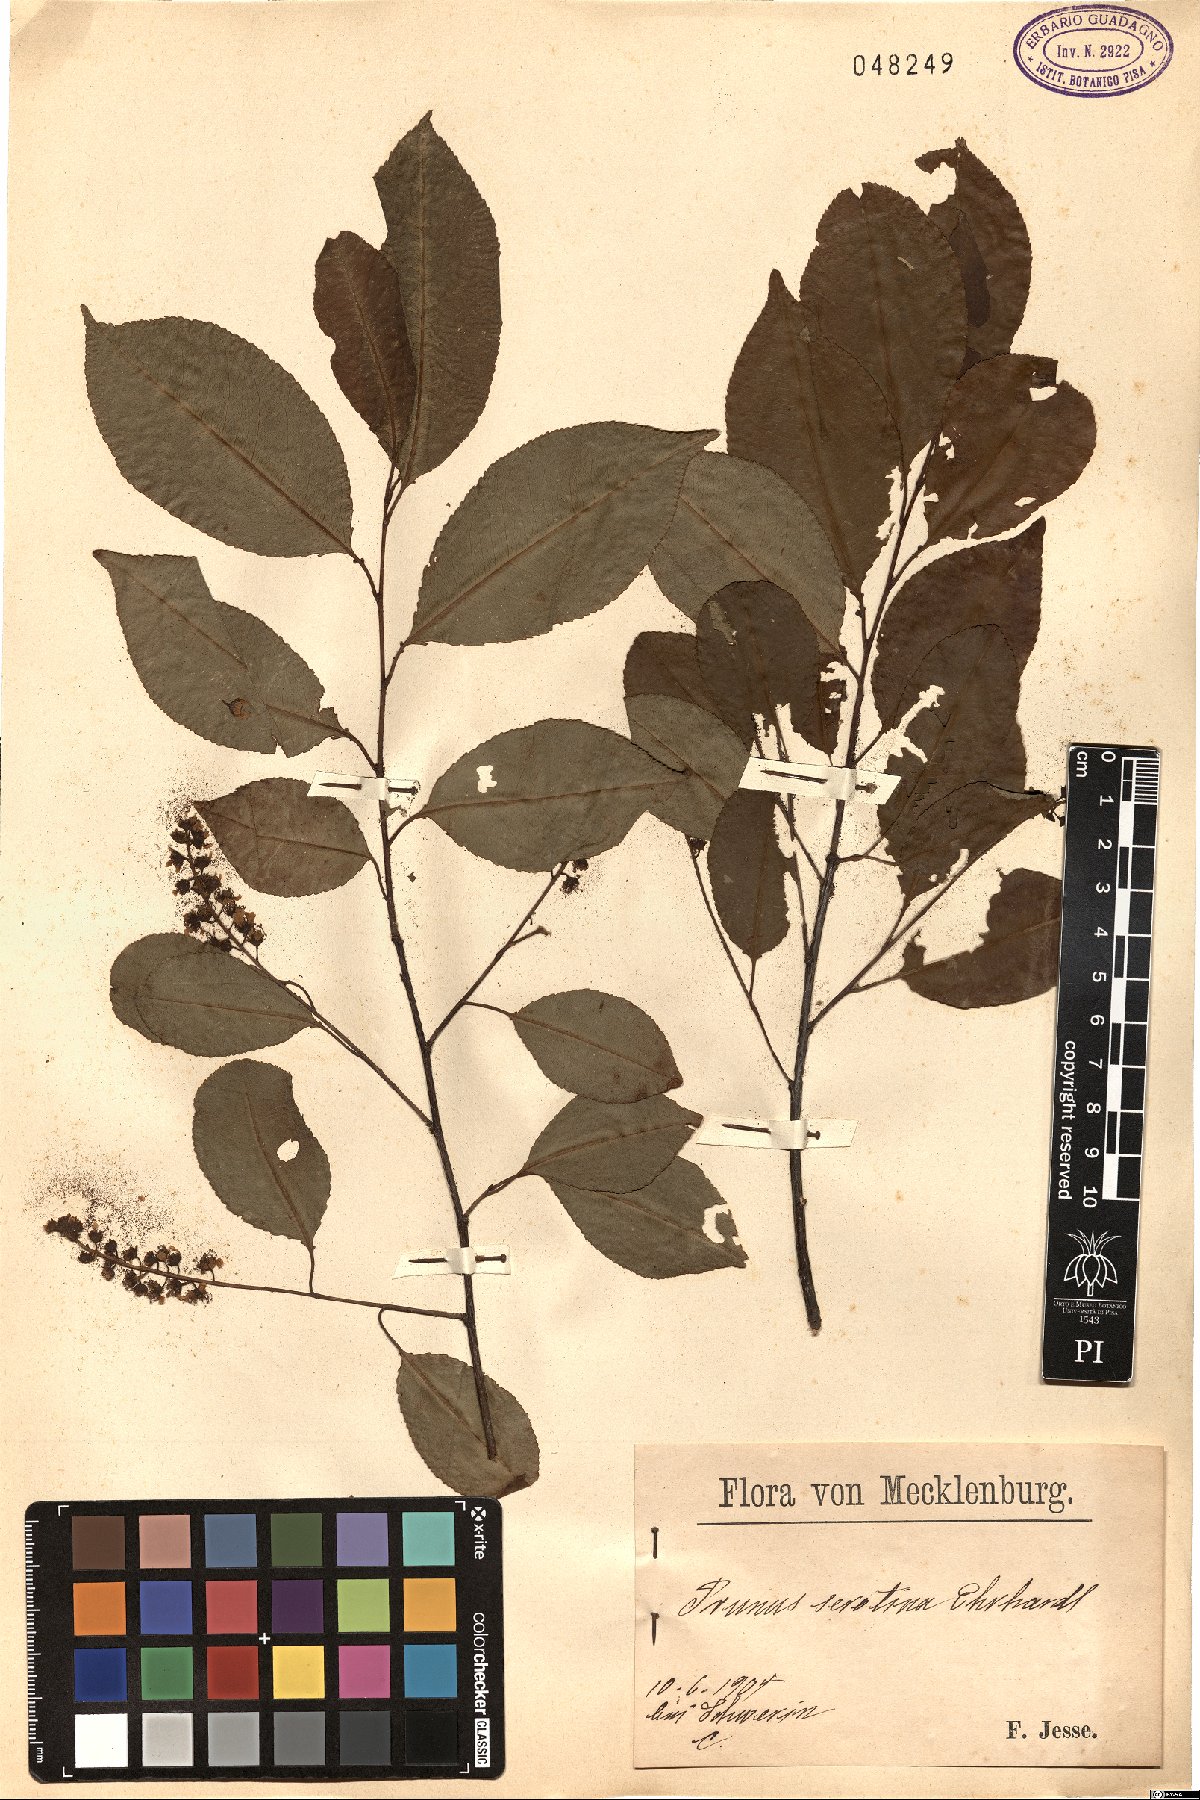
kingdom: Plantae
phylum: Tracheophyta
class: Magnoliopsida
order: Rosales
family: Rosaceae
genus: Prunus
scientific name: Prunus serotina
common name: Black cherry
